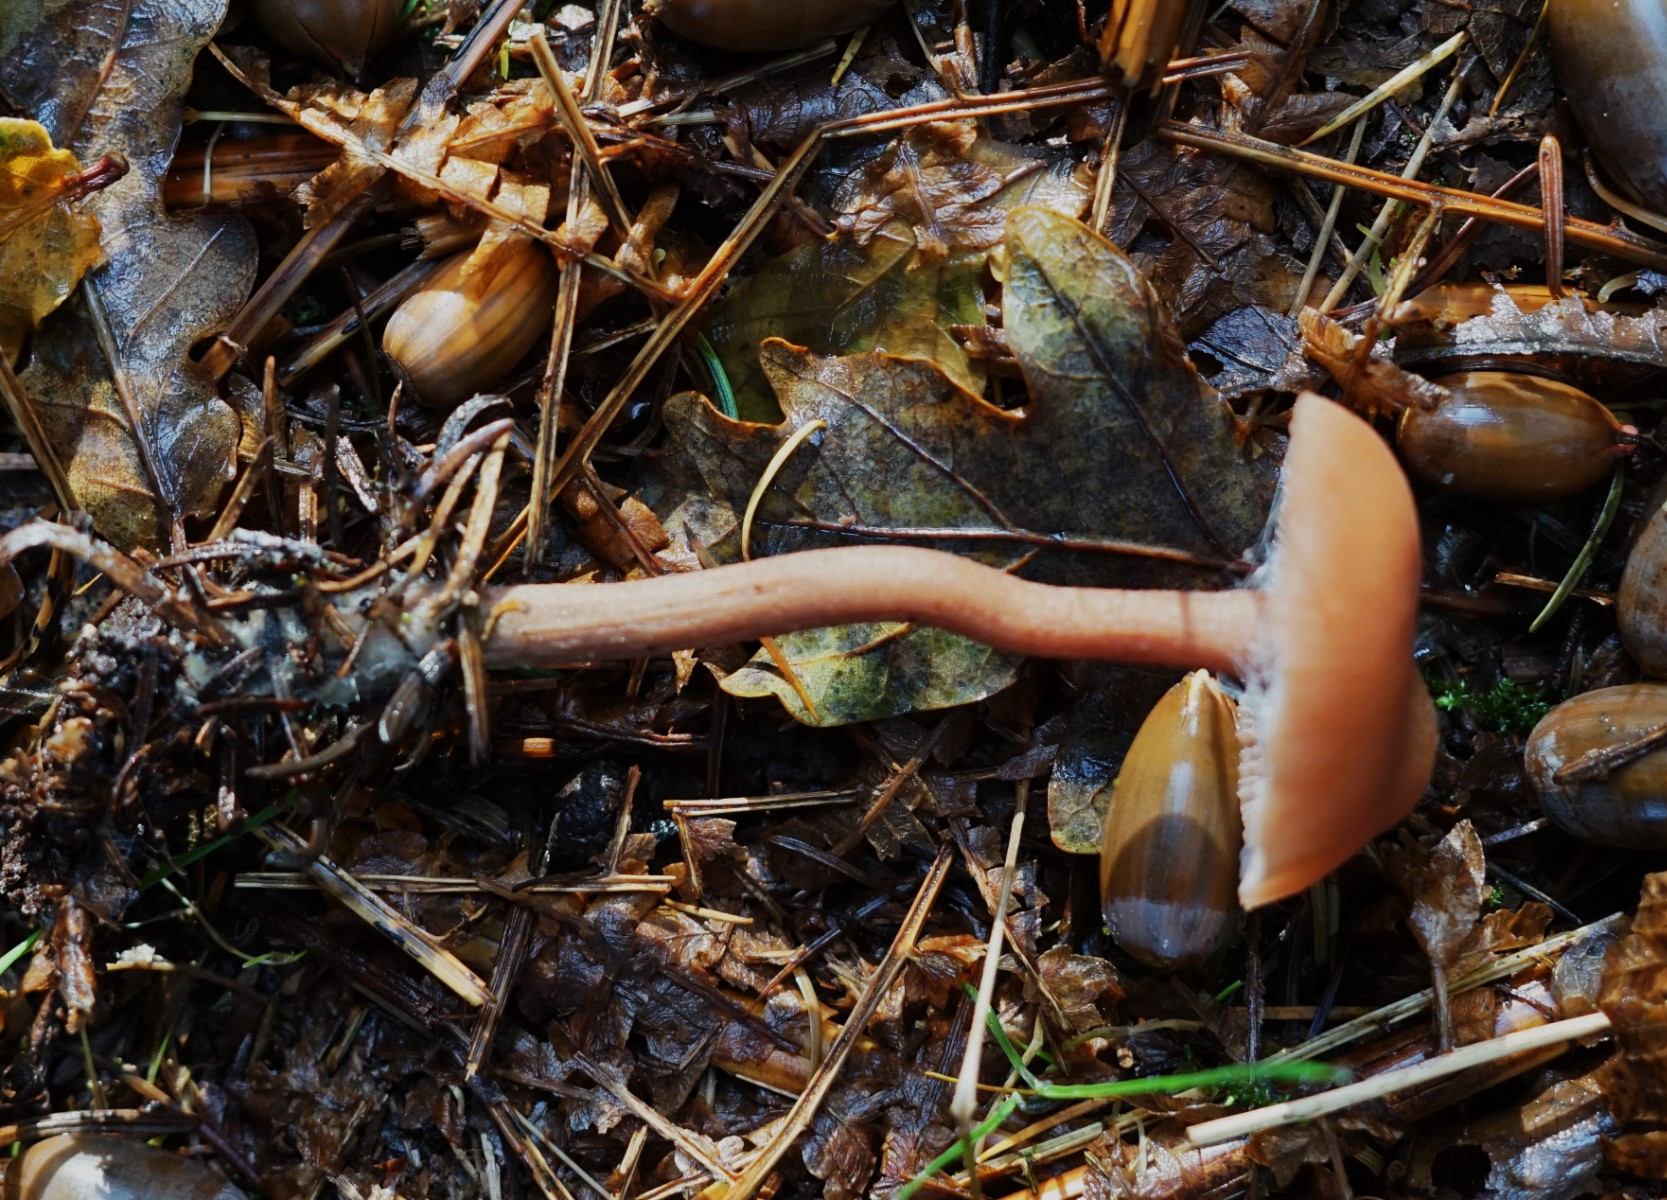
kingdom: Fungi
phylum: Basidiomycota
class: Agaricomycetes
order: Agaricales
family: Hydnangiaceae
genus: Laccaria
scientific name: Laccaria
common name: ametysthat
